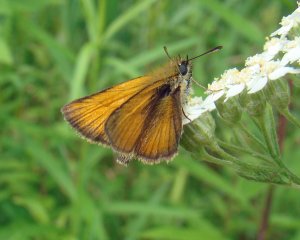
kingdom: Animalia
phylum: Arthropoda
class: Insecta
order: Lepidoptera
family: Hesperiidae
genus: Thymelicus
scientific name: Thymelicus lineola
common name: European Skipper
